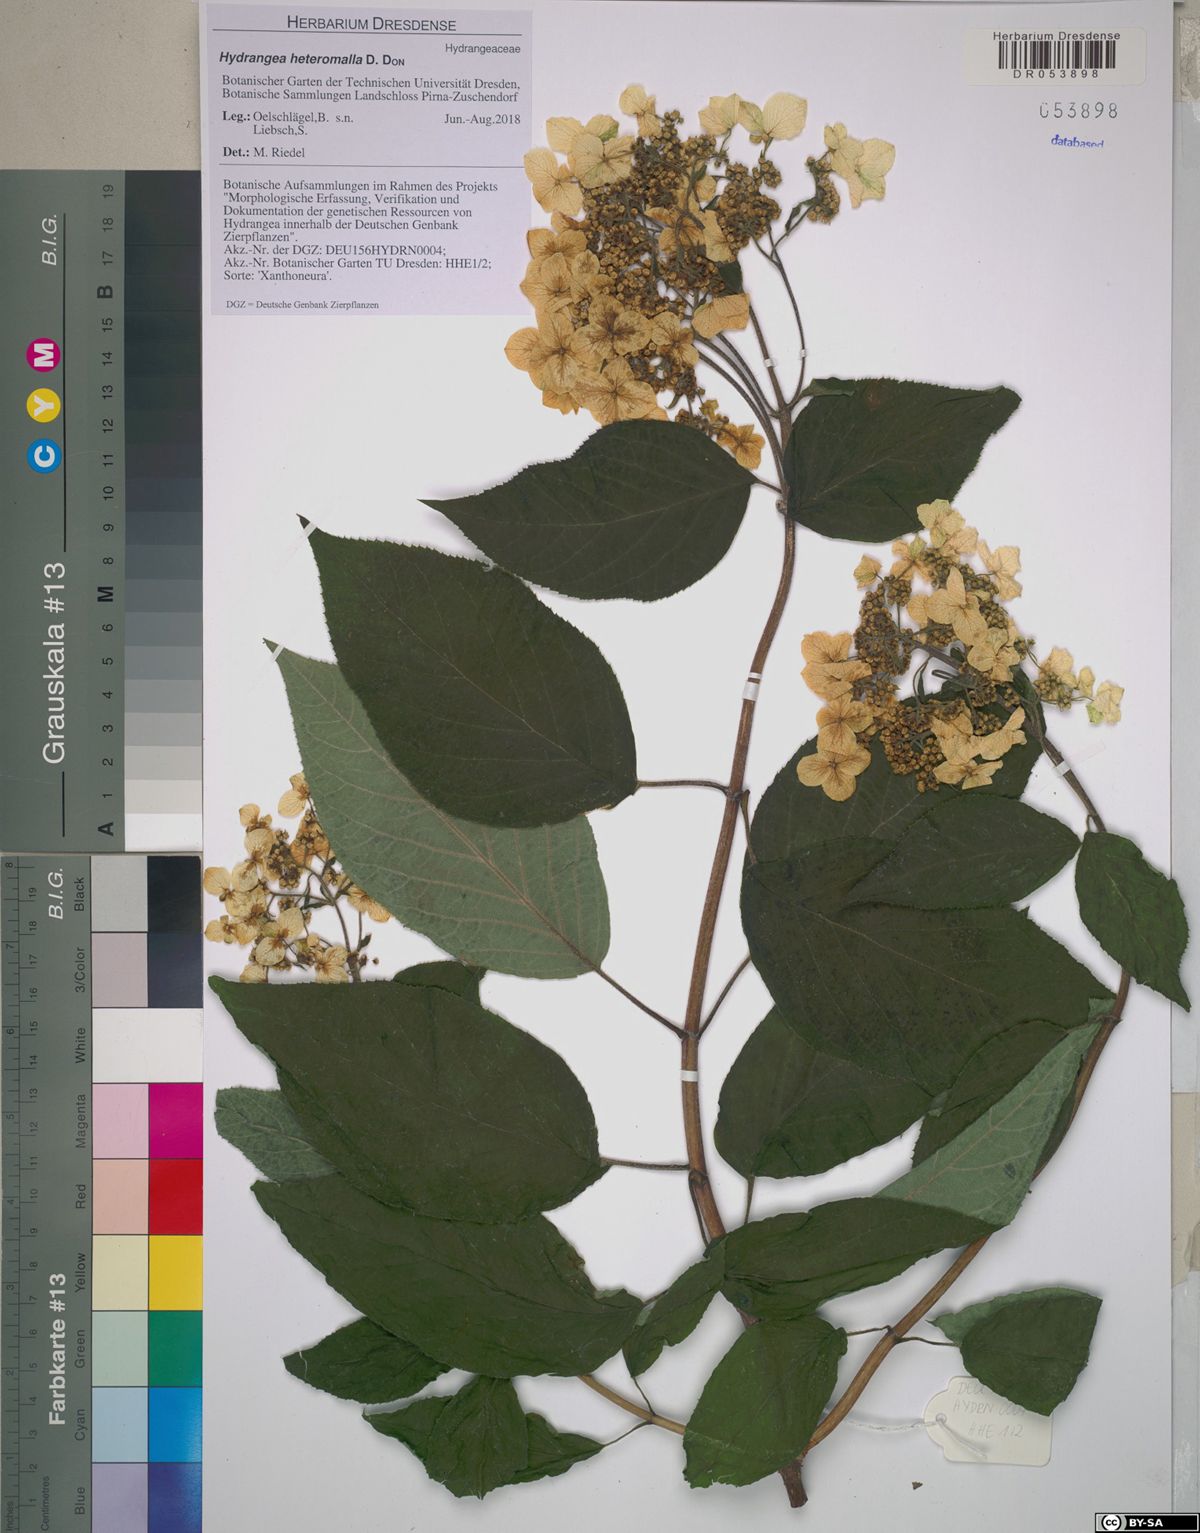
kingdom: Plantae
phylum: Tracheophyta
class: Magnoliopsida
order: Cornales
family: Hydrangeaceae
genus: Hydrangea
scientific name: Hydrangea heteromalla
